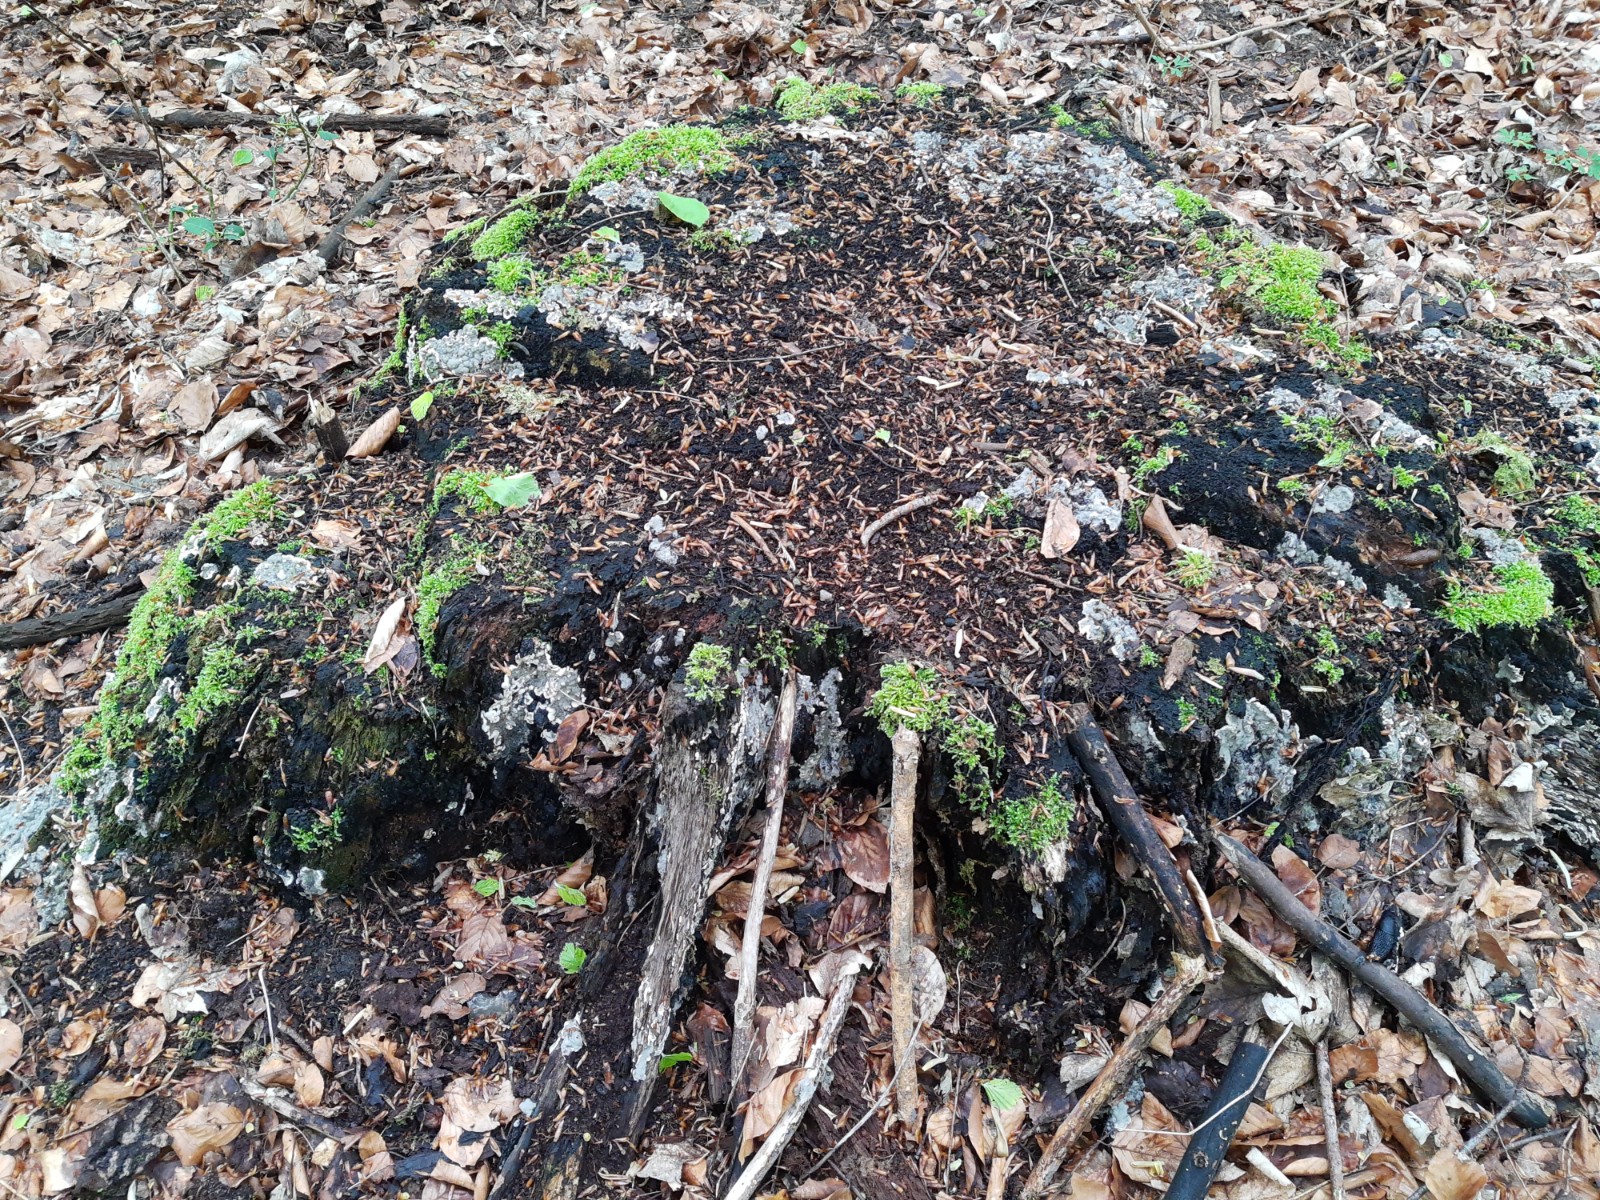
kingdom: Fungi
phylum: Ascomycota
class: Sordariomycetes
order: Xylariales
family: Xylariaceae
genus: Kretzschmaria
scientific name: Kretzschmaria deusta
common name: stor kulsvamp
